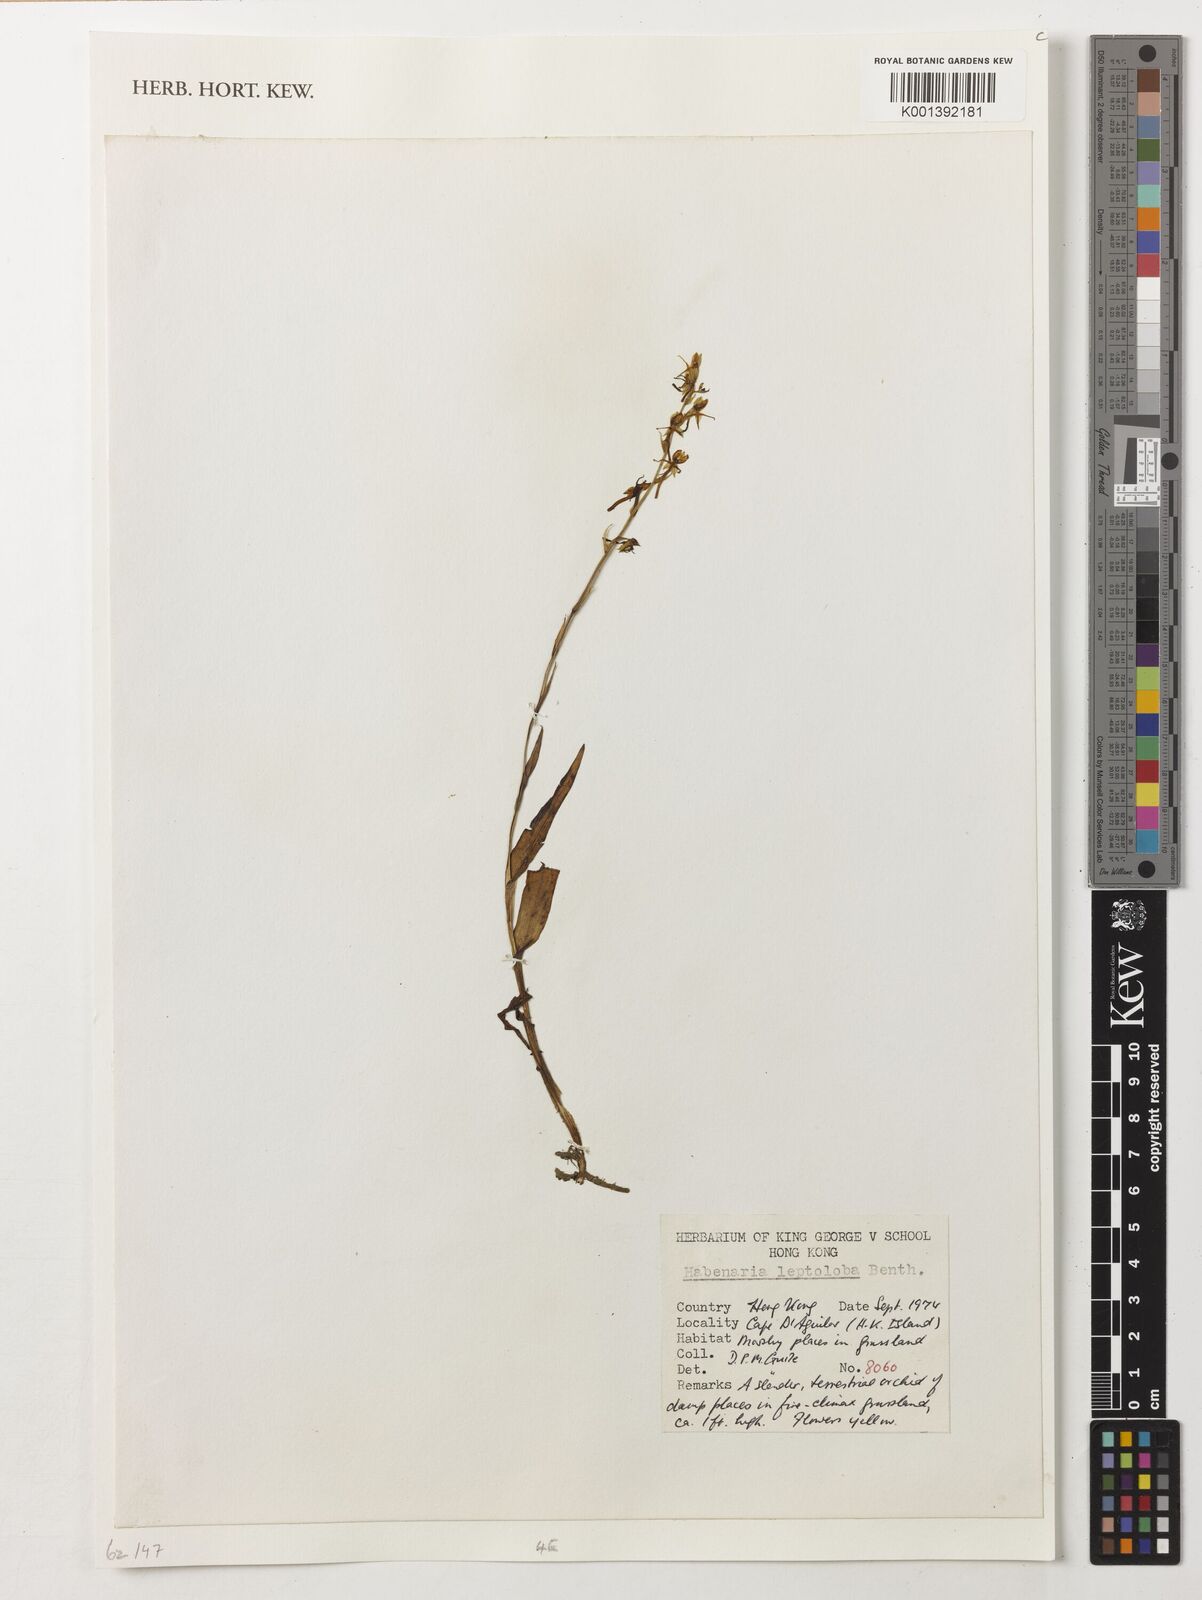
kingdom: Plantae
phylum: Tracheophyta
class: Liliopsida
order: Asparagales
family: Orchidaceae
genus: Habenaria
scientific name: Habenaria leptoloba
